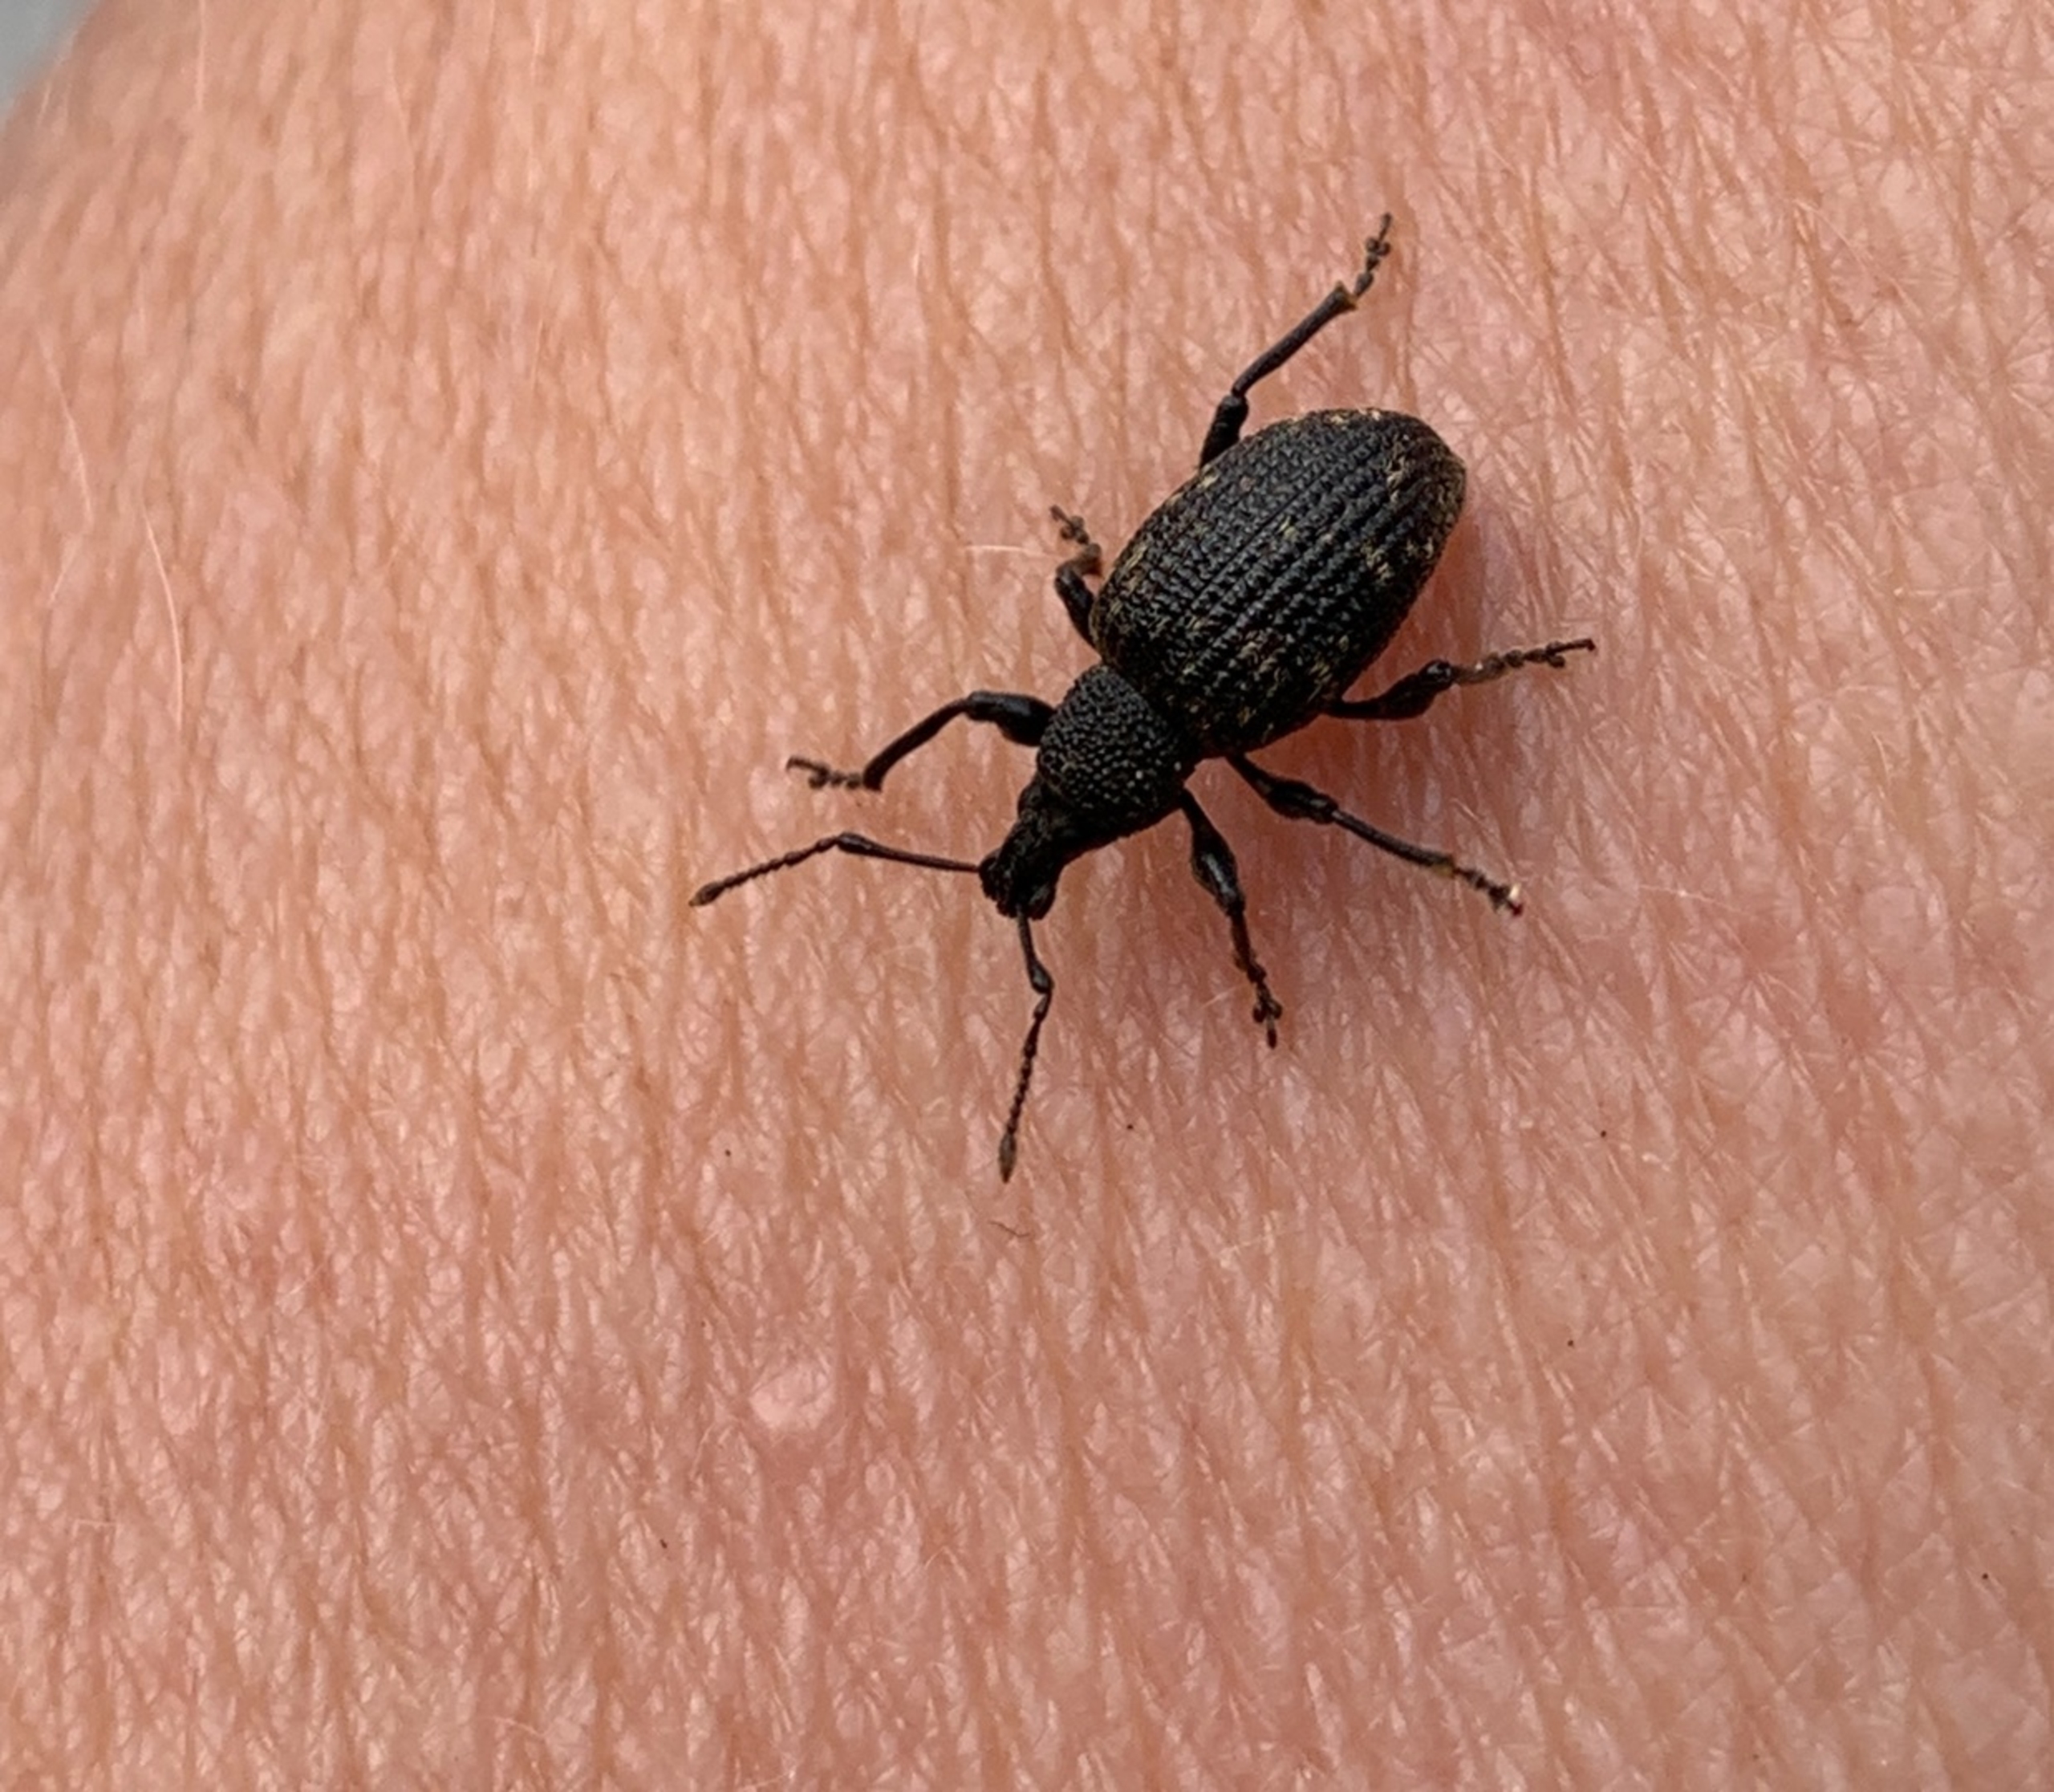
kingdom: Animalia
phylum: Arthropoda
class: Insecta
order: Coleoptera
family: Curculionidae
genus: Otiorhynchus
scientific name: Otiorhynchus sulcatus
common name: Væksthussnudebille
